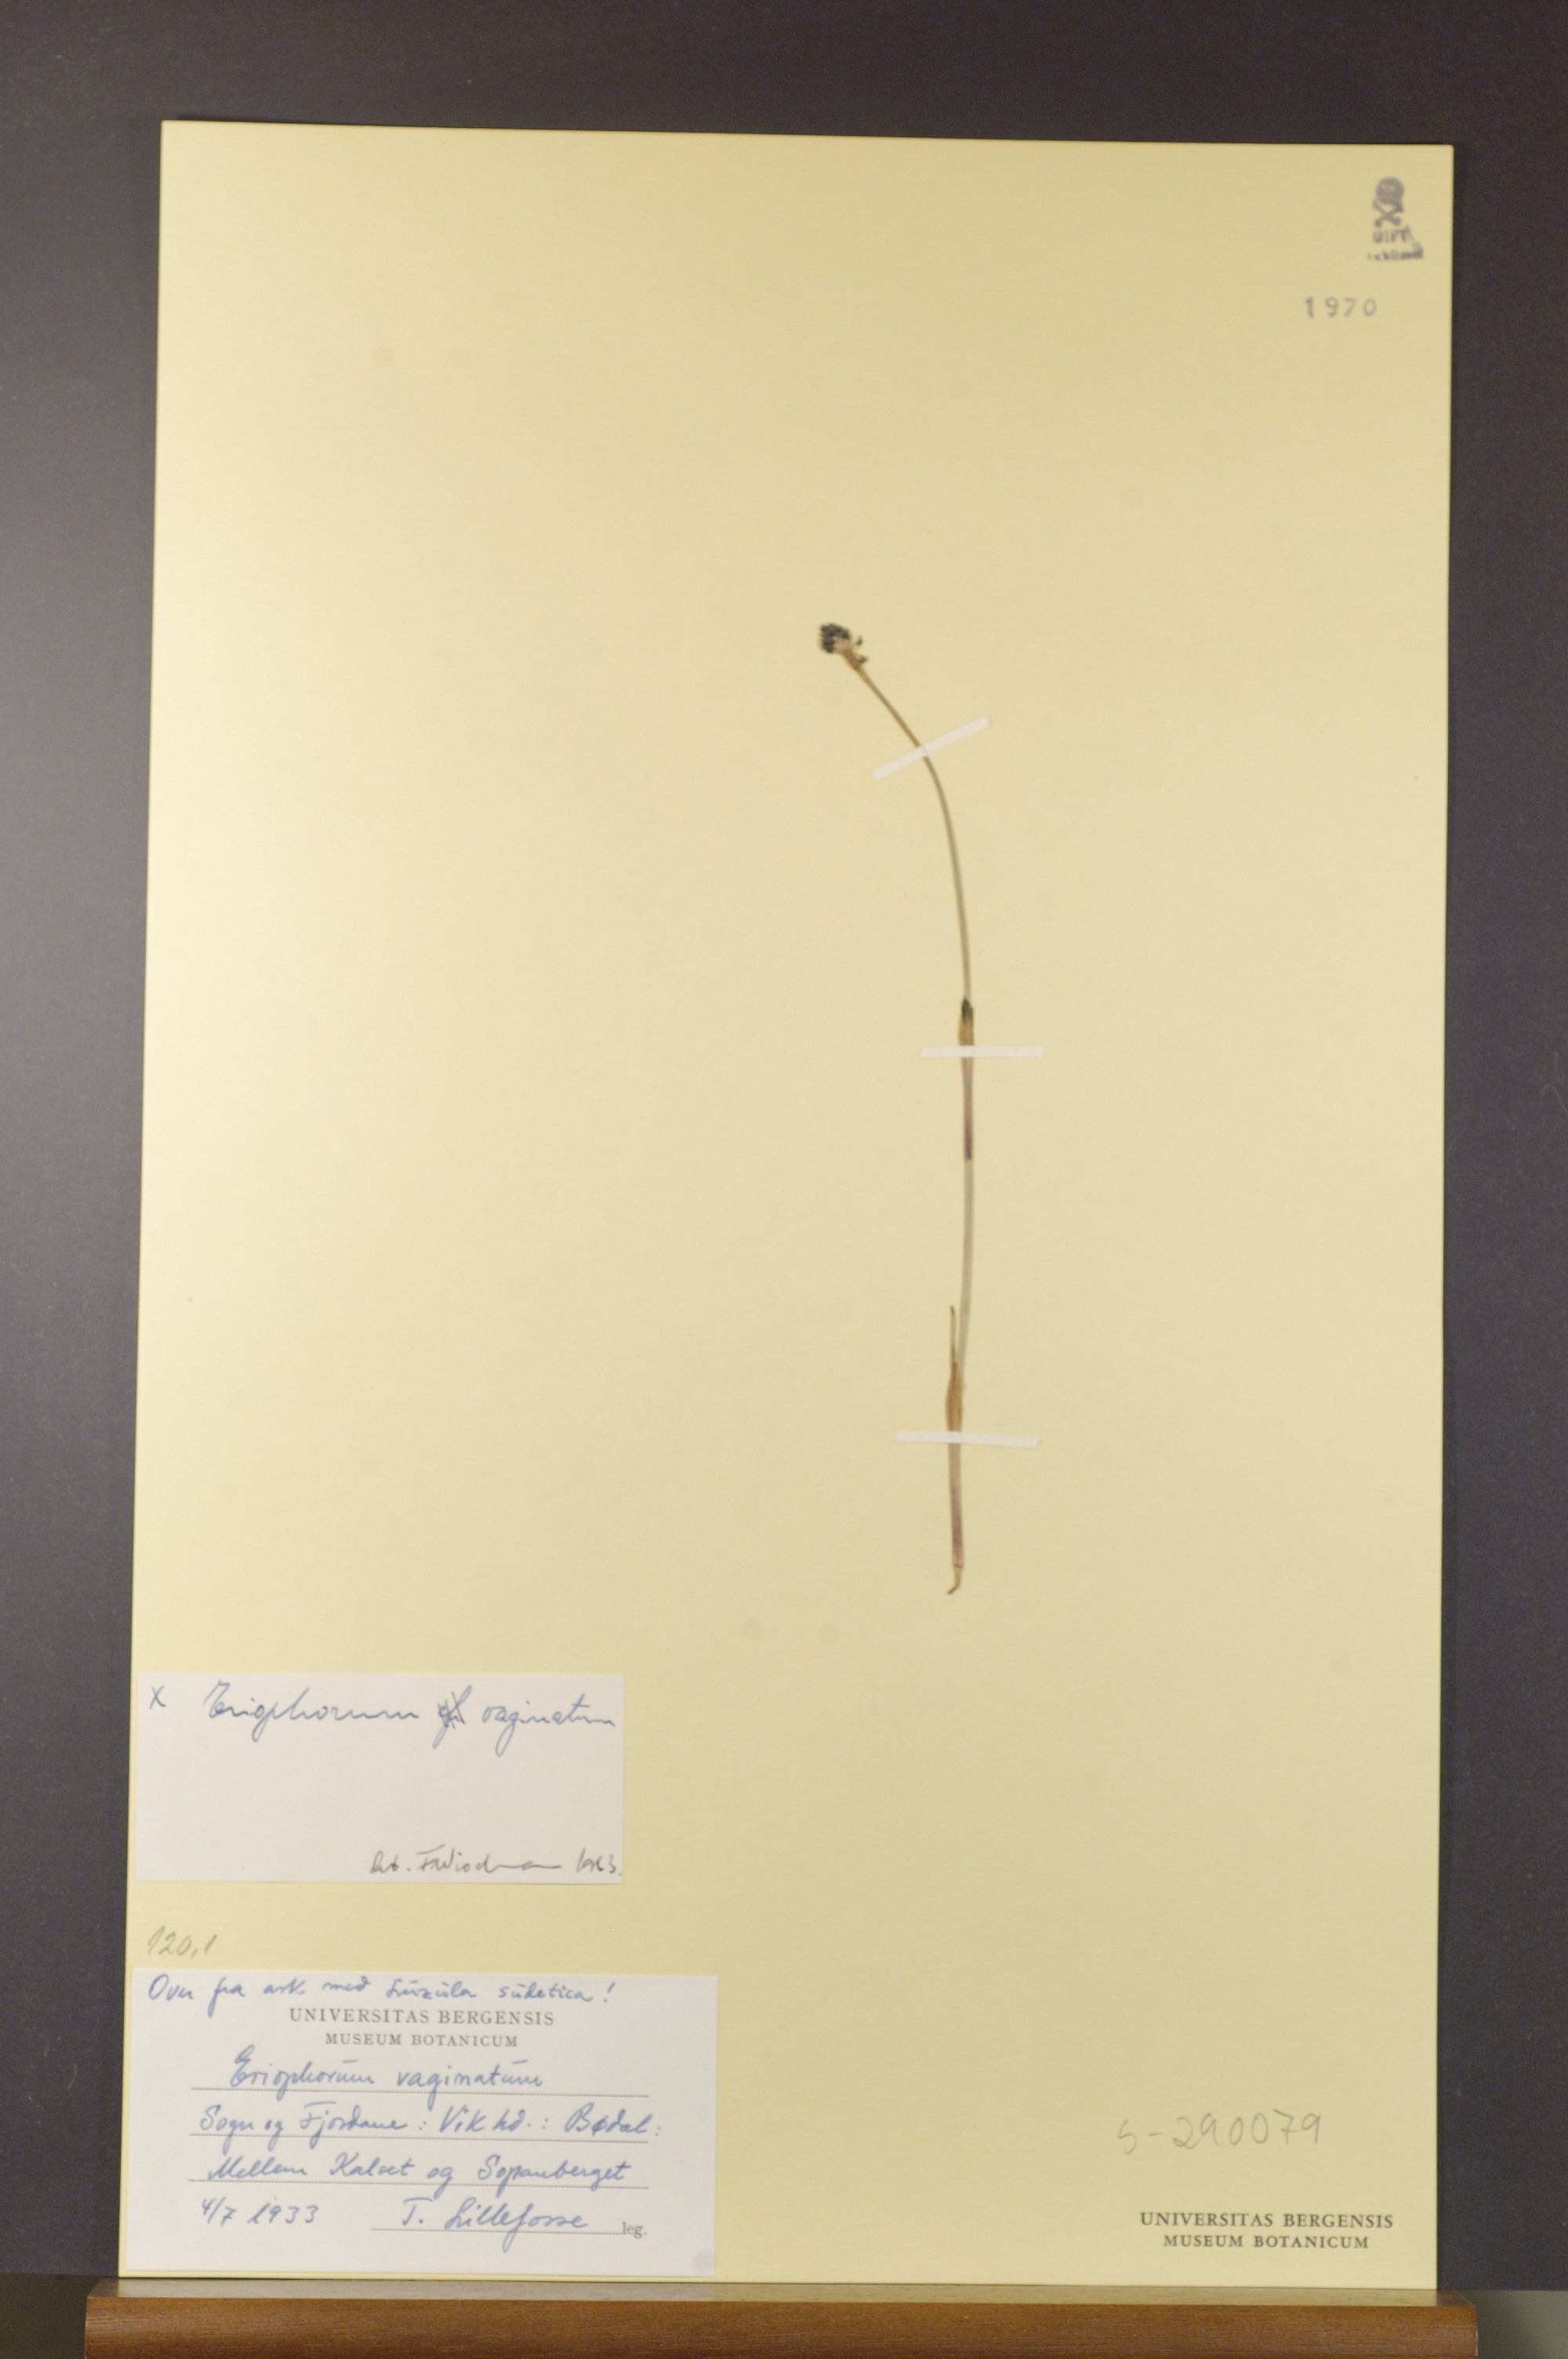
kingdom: Plantae
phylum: Tracheophyta
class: Liliopsida
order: Poales
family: Cyperaceae
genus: Eriophorum
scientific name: Eriophorum vaginatum
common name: Hare's-tail cottongrass
